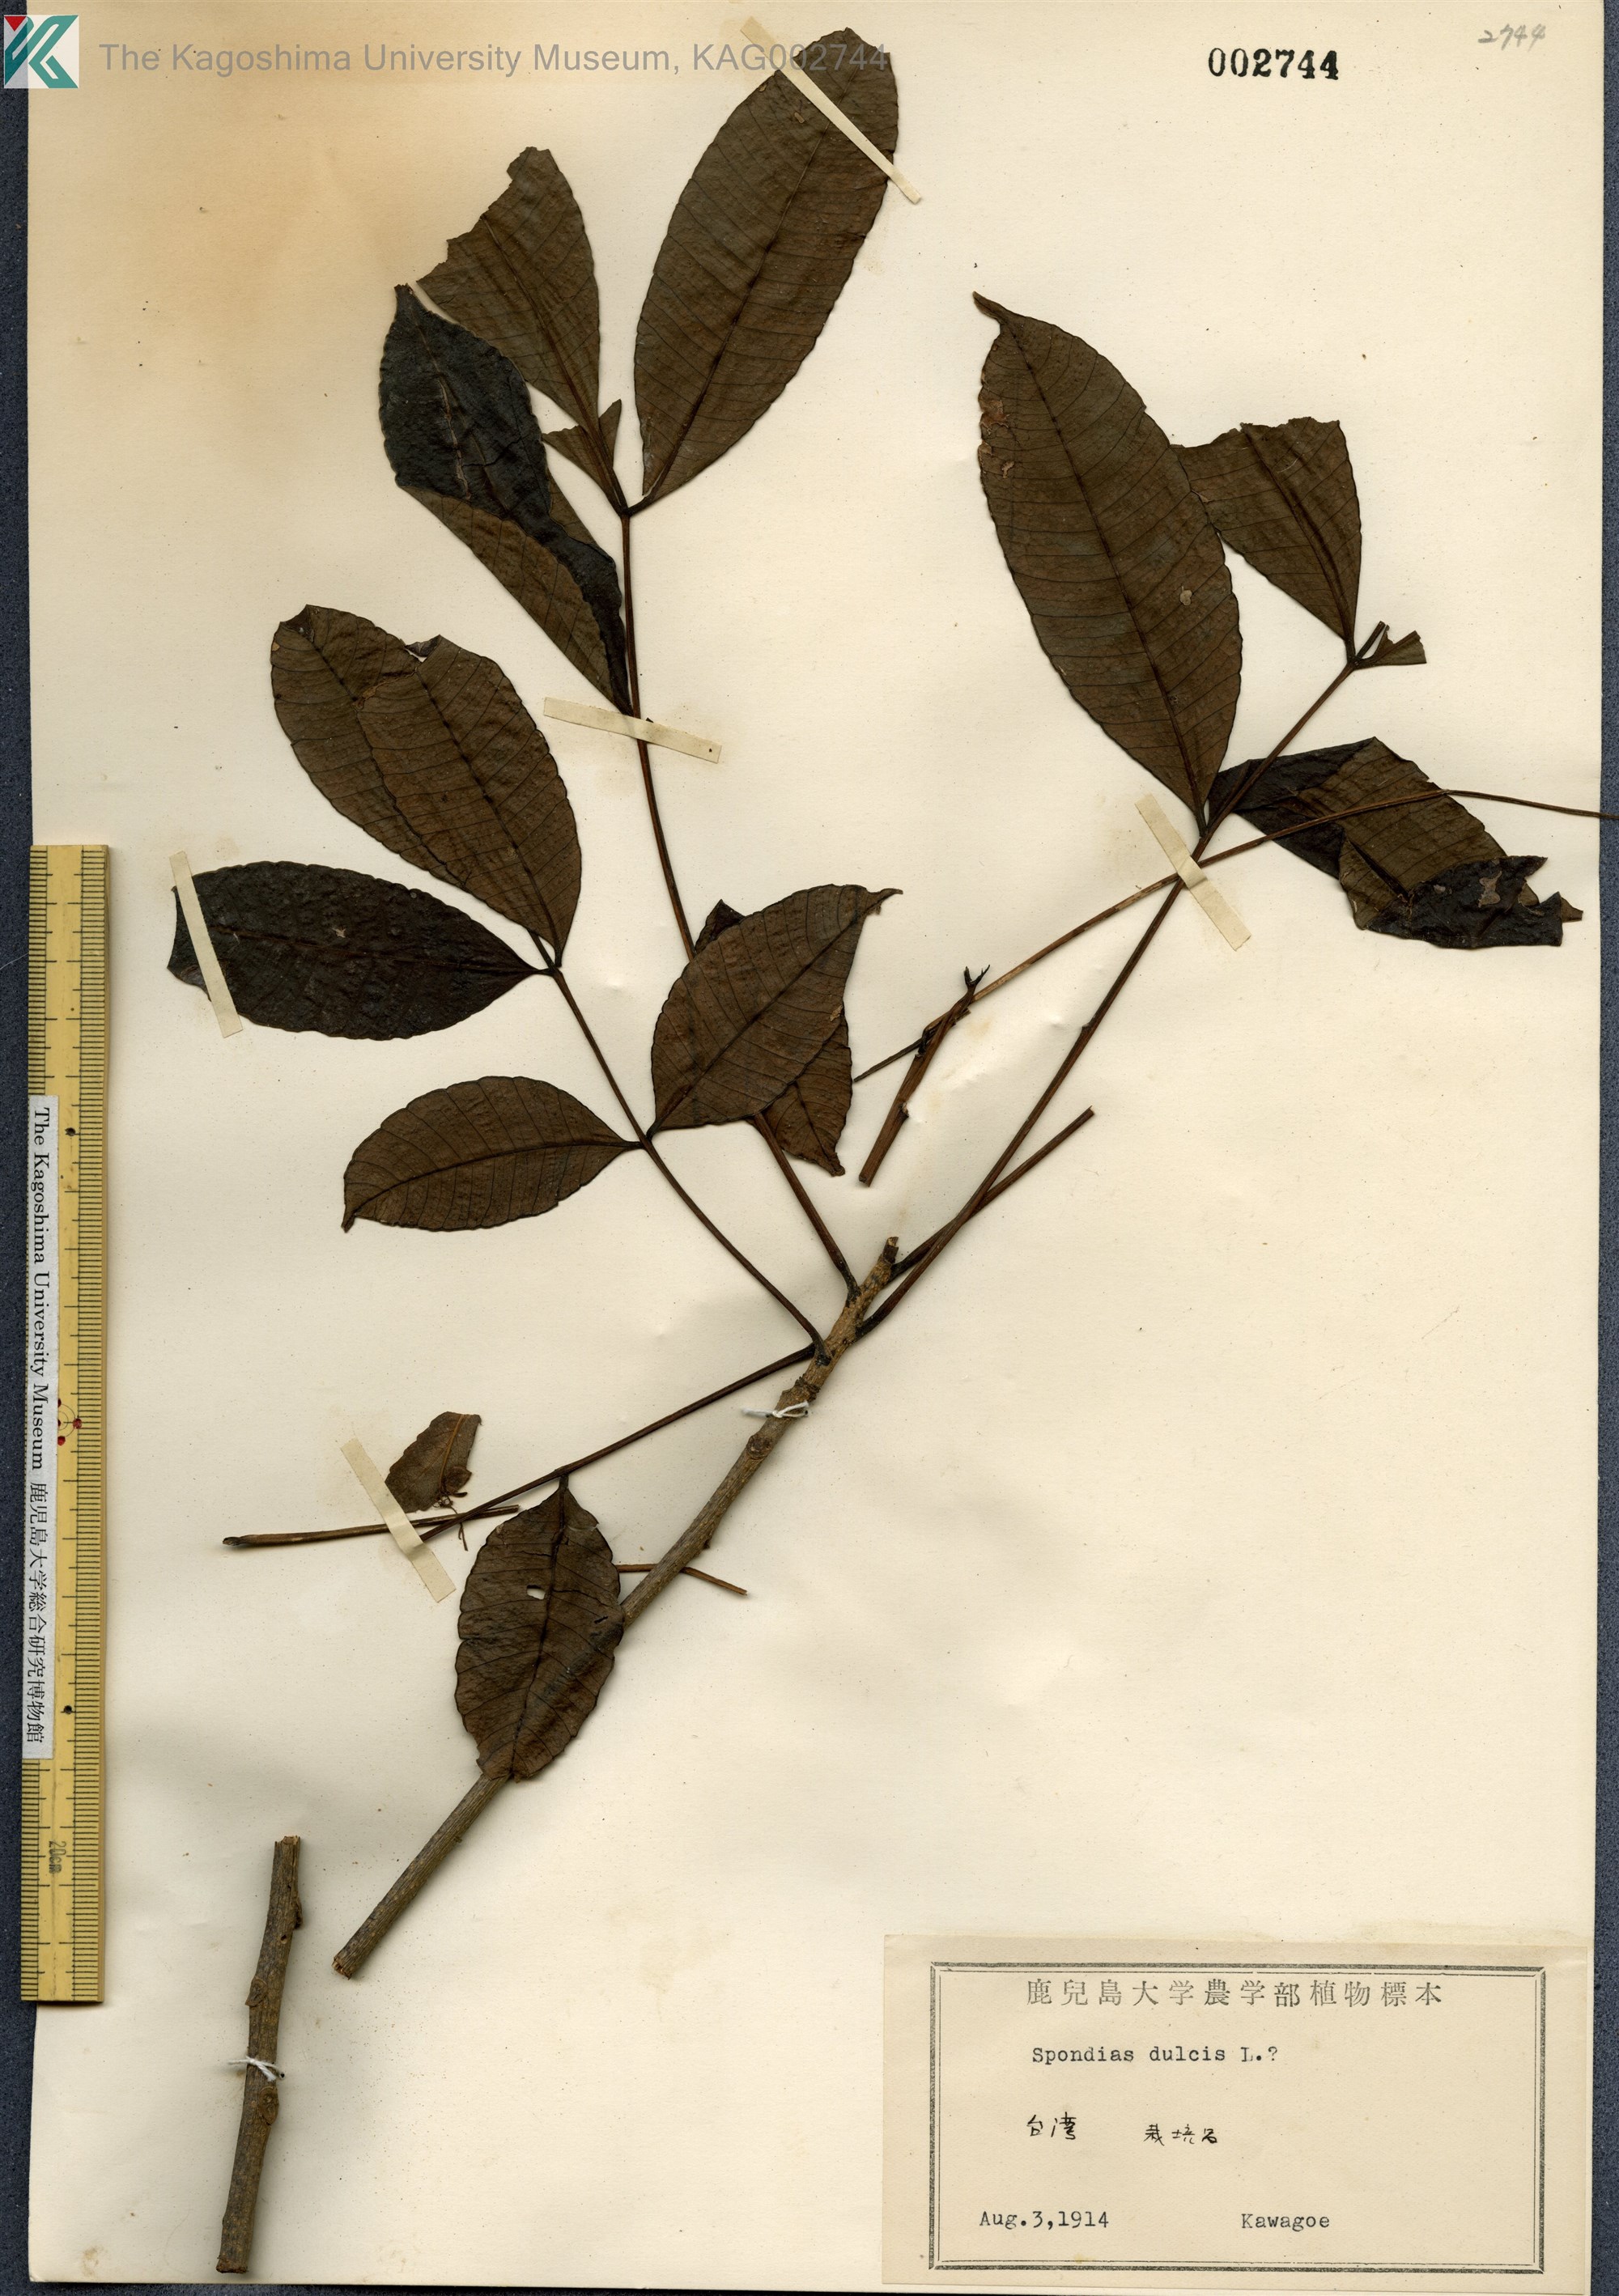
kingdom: Plantae
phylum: Tracheophyta
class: Magnoliopsida
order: Sapindales
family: Anacardiaceae
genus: Spondias
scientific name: Spondias dulcis
